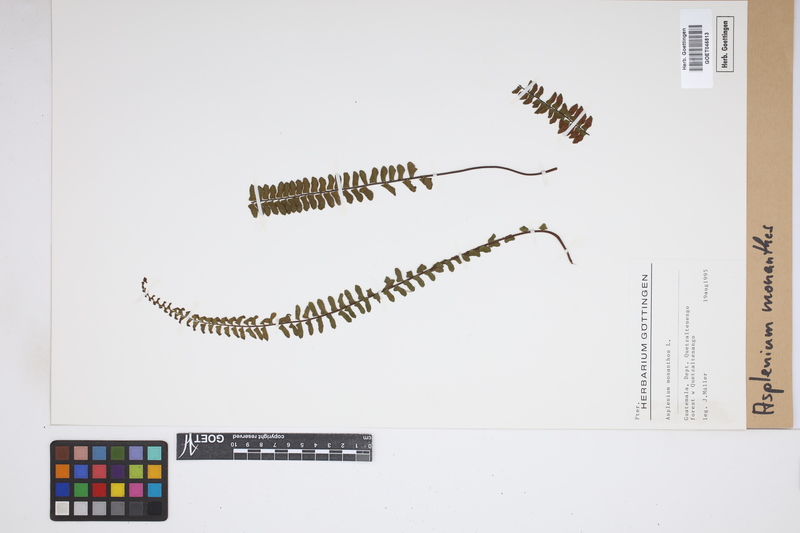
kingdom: Plantae
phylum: Tracheophyta
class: Polypodiopsida
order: Polypodiales
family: Aspleniaceae
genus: Asplenium
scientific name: Asplenium monanthes
